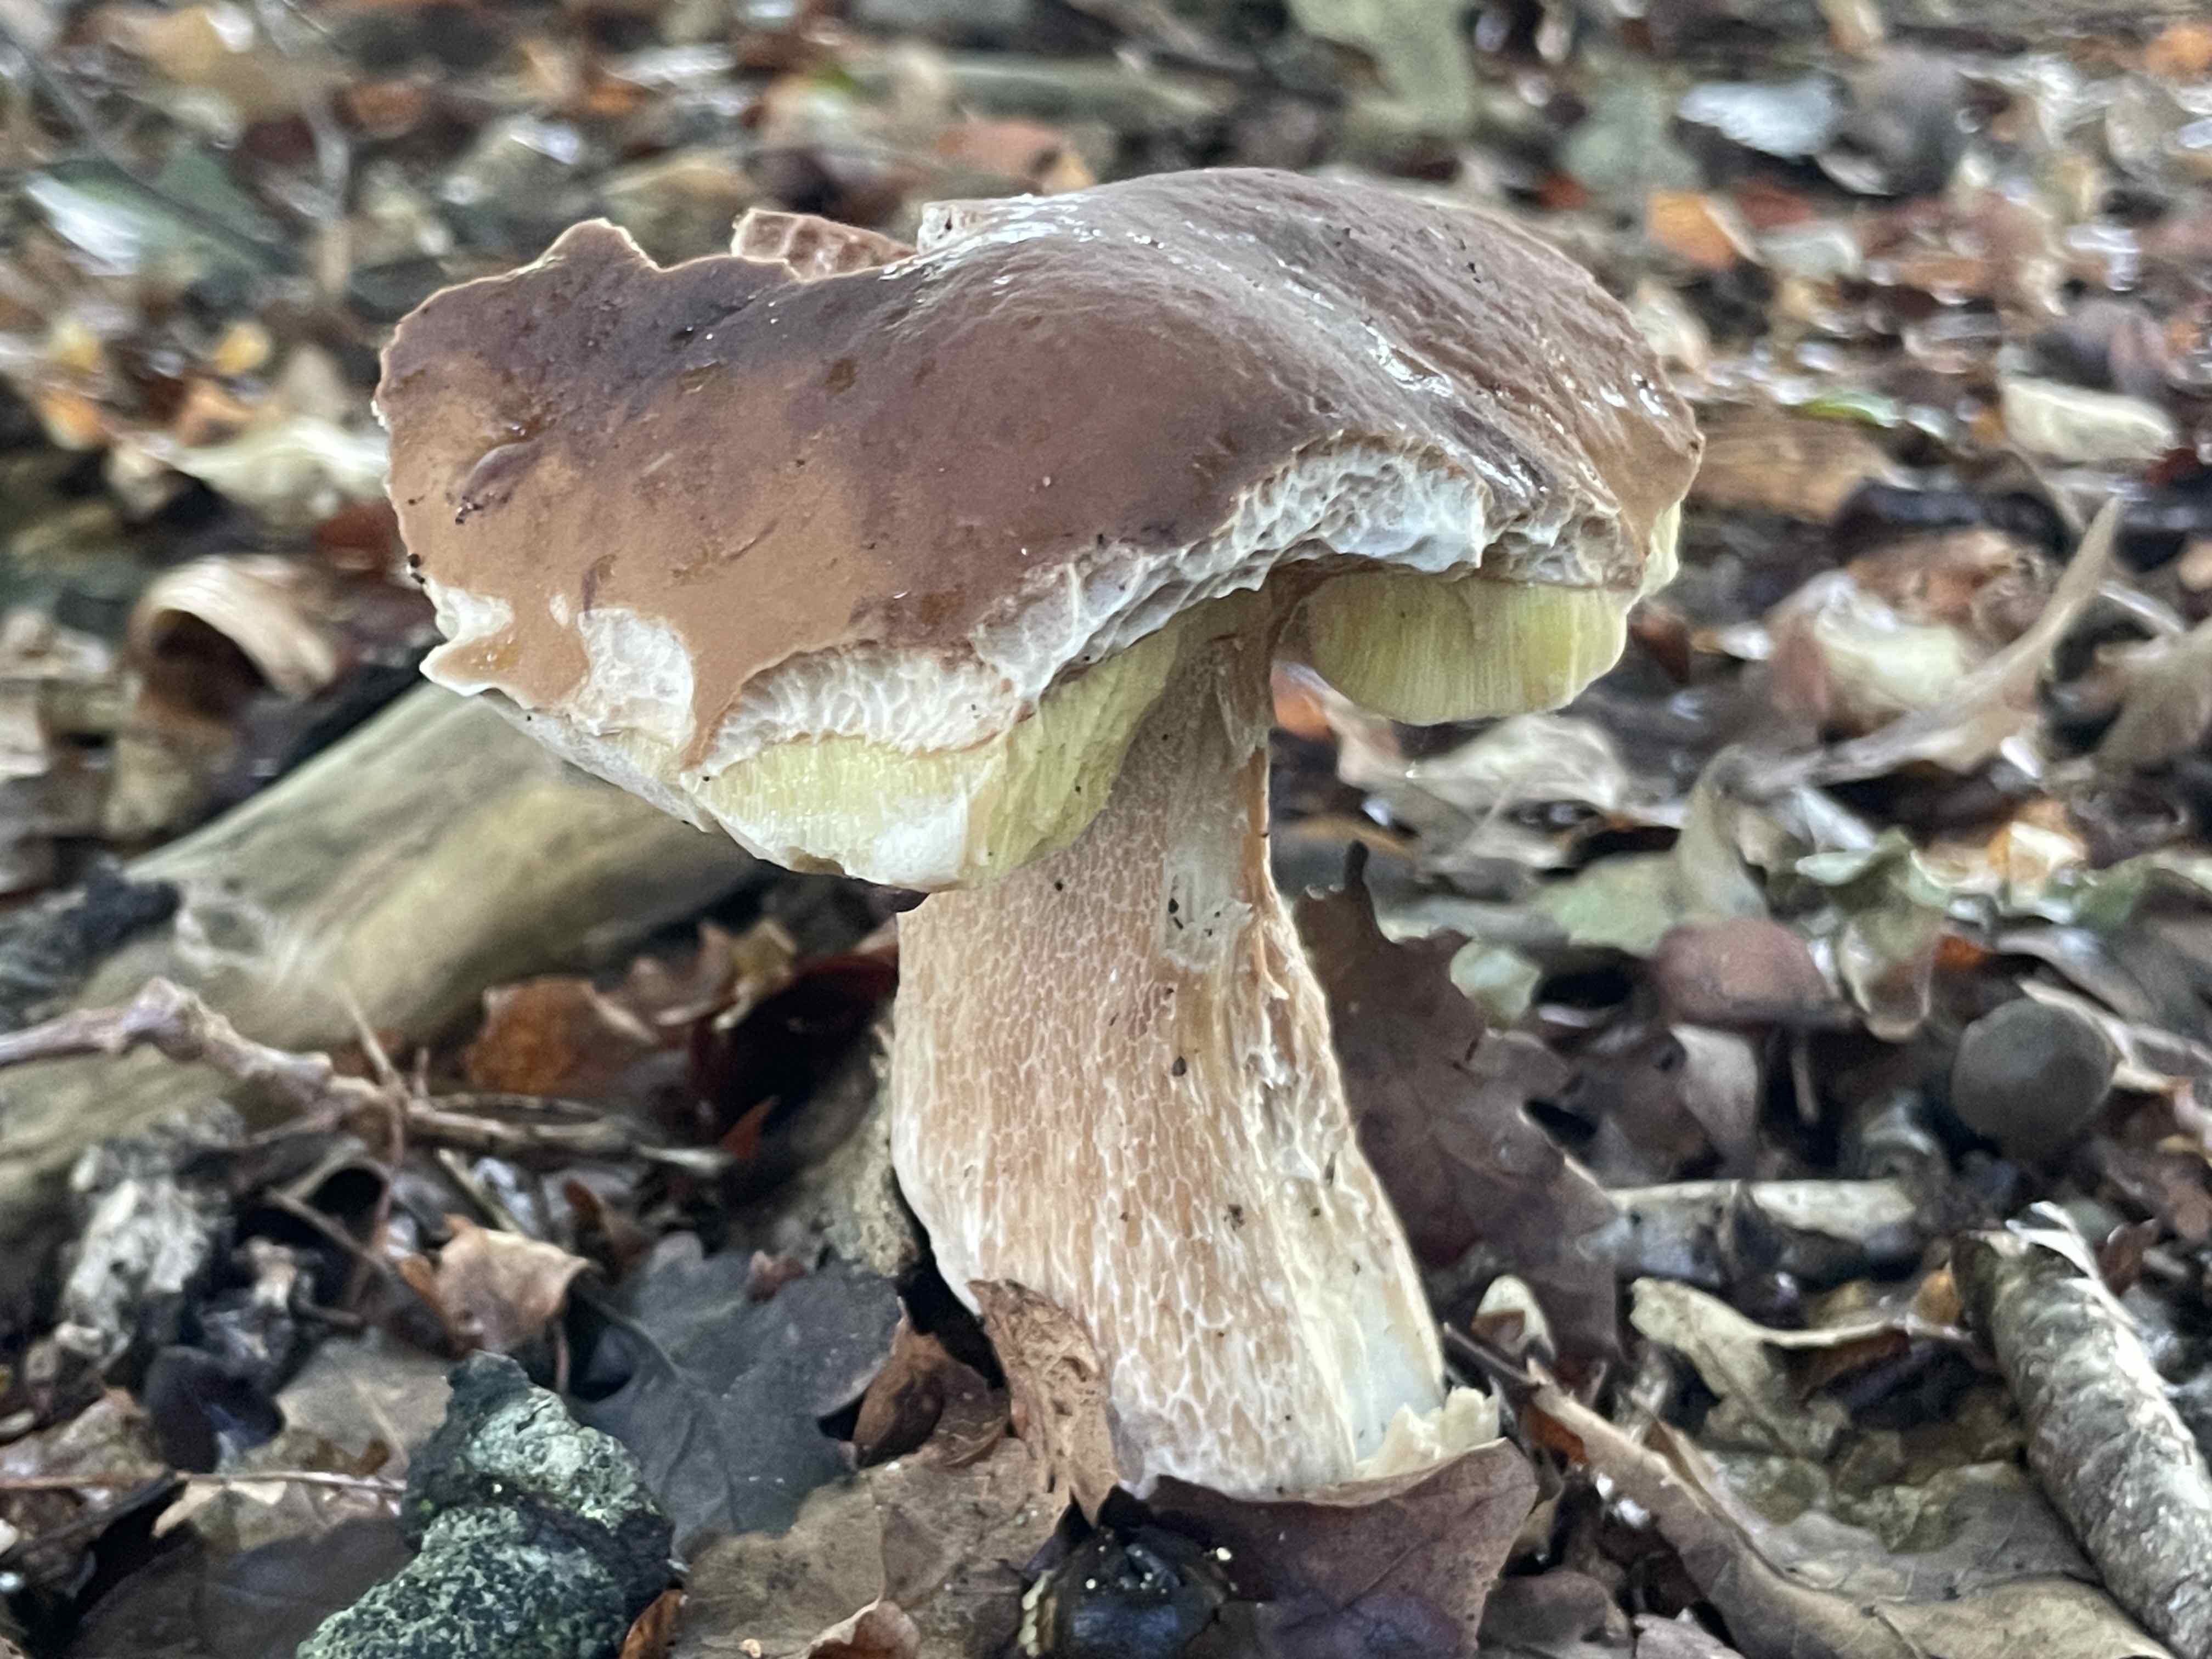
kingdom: Fungi
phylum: Basidiomycota
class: Agaricomycetes
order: Boletales
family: Boletaceae
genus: Boletus
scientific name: Boletus edulis
